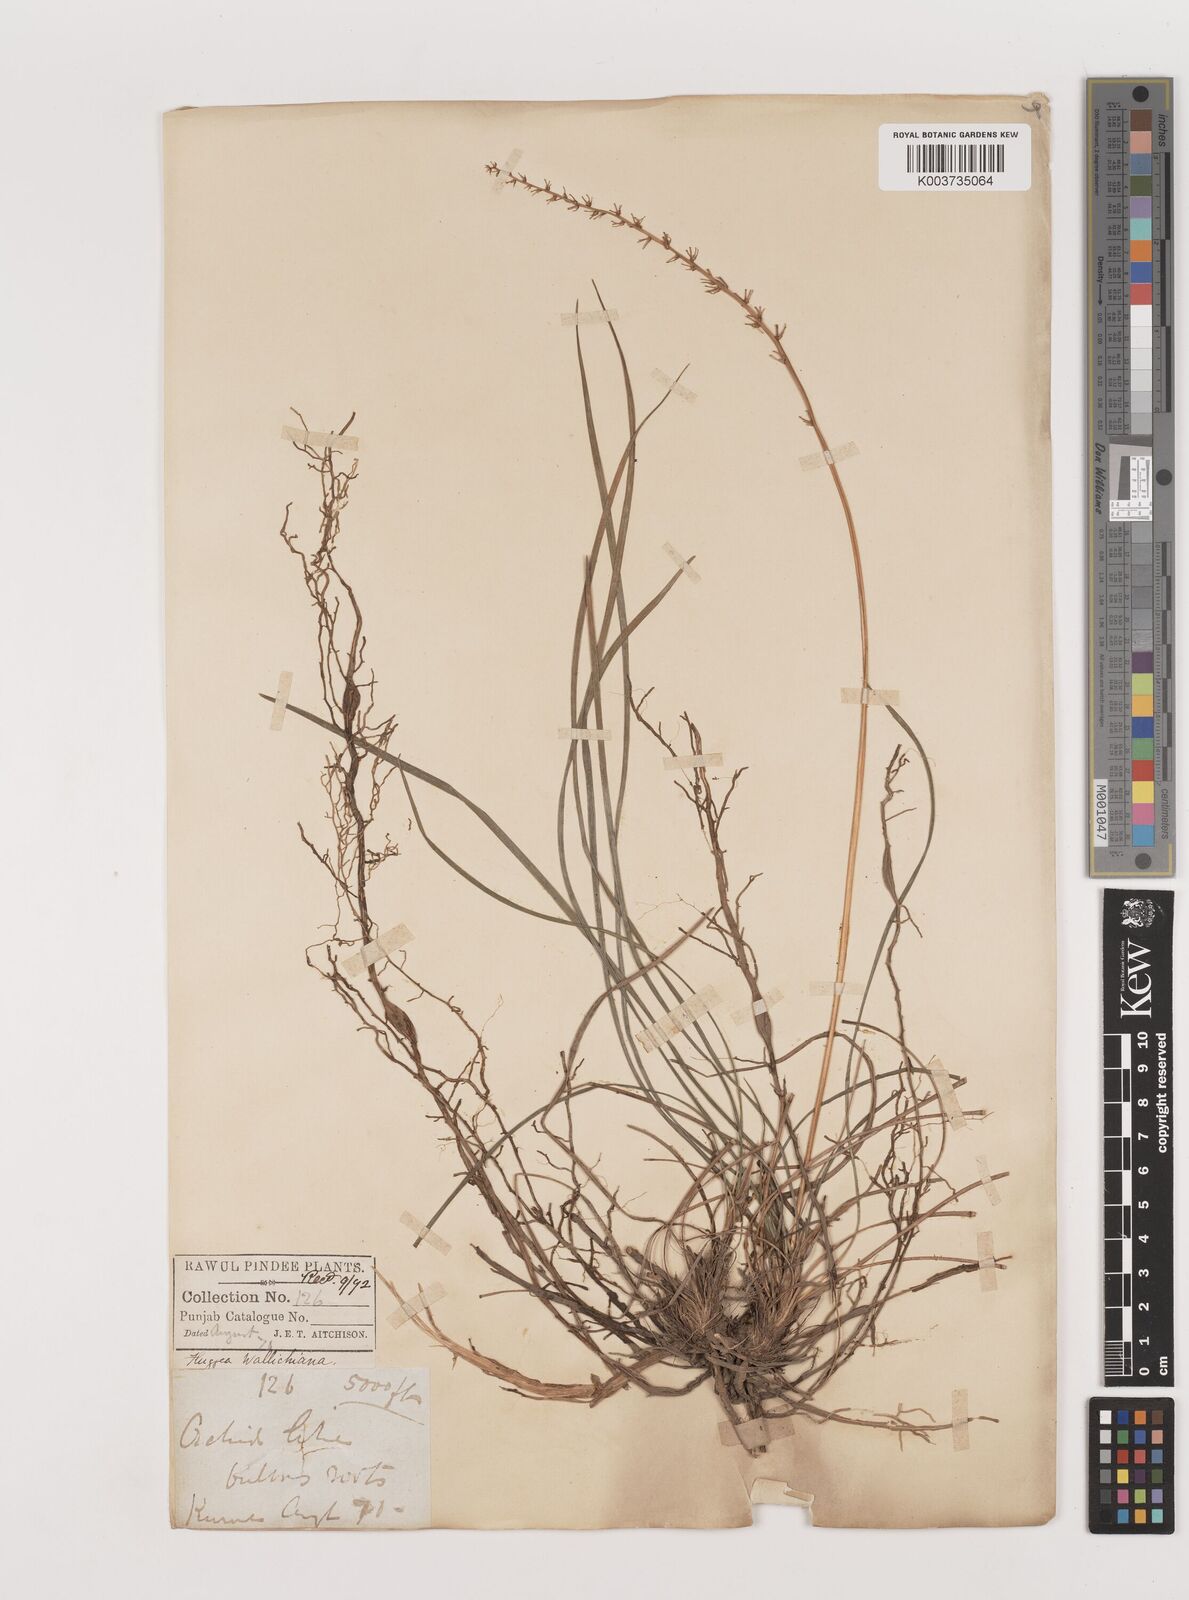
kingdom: Plantae
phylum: Tracheophyta
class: Liliopsida
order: Asparagales
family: Asparagaceae
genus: Ophiopogon
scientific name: Ophiopogon intermedius
